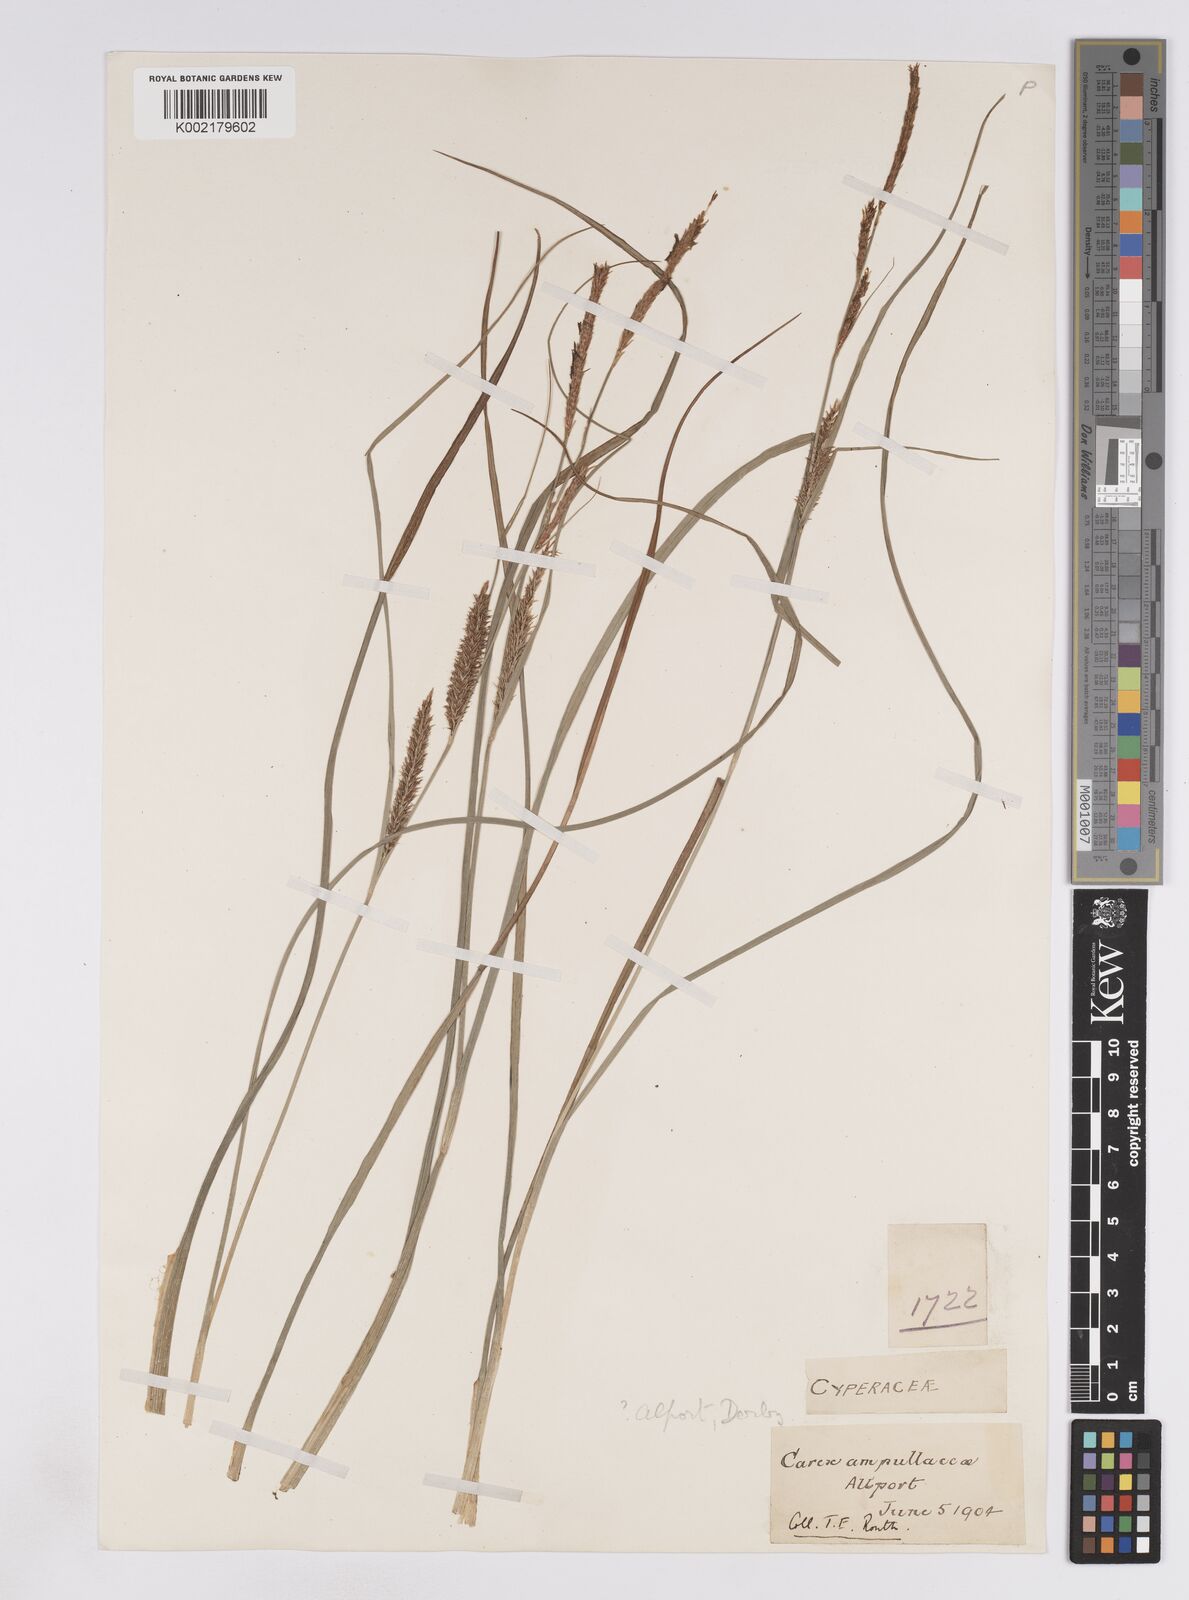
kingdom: Plantae
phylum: Tracheophyta
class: Liliopsida
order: Poales
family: Cyperaceae
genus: Carex
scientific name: Carex rostrata
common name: Bottle sedge
